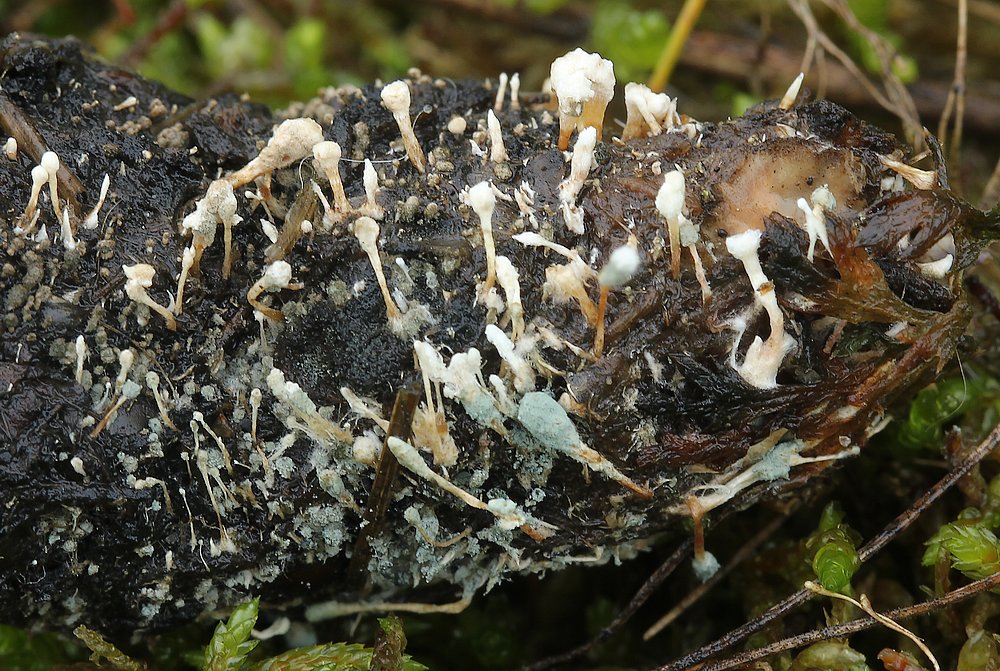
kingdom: Fungi
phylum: Ascomycota
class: Eurotiomycetes
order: Eurotiales
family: Aspergillaceae
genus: Penicillium
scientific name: Penicillium vulpinum
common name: kølle-penselskimmel
